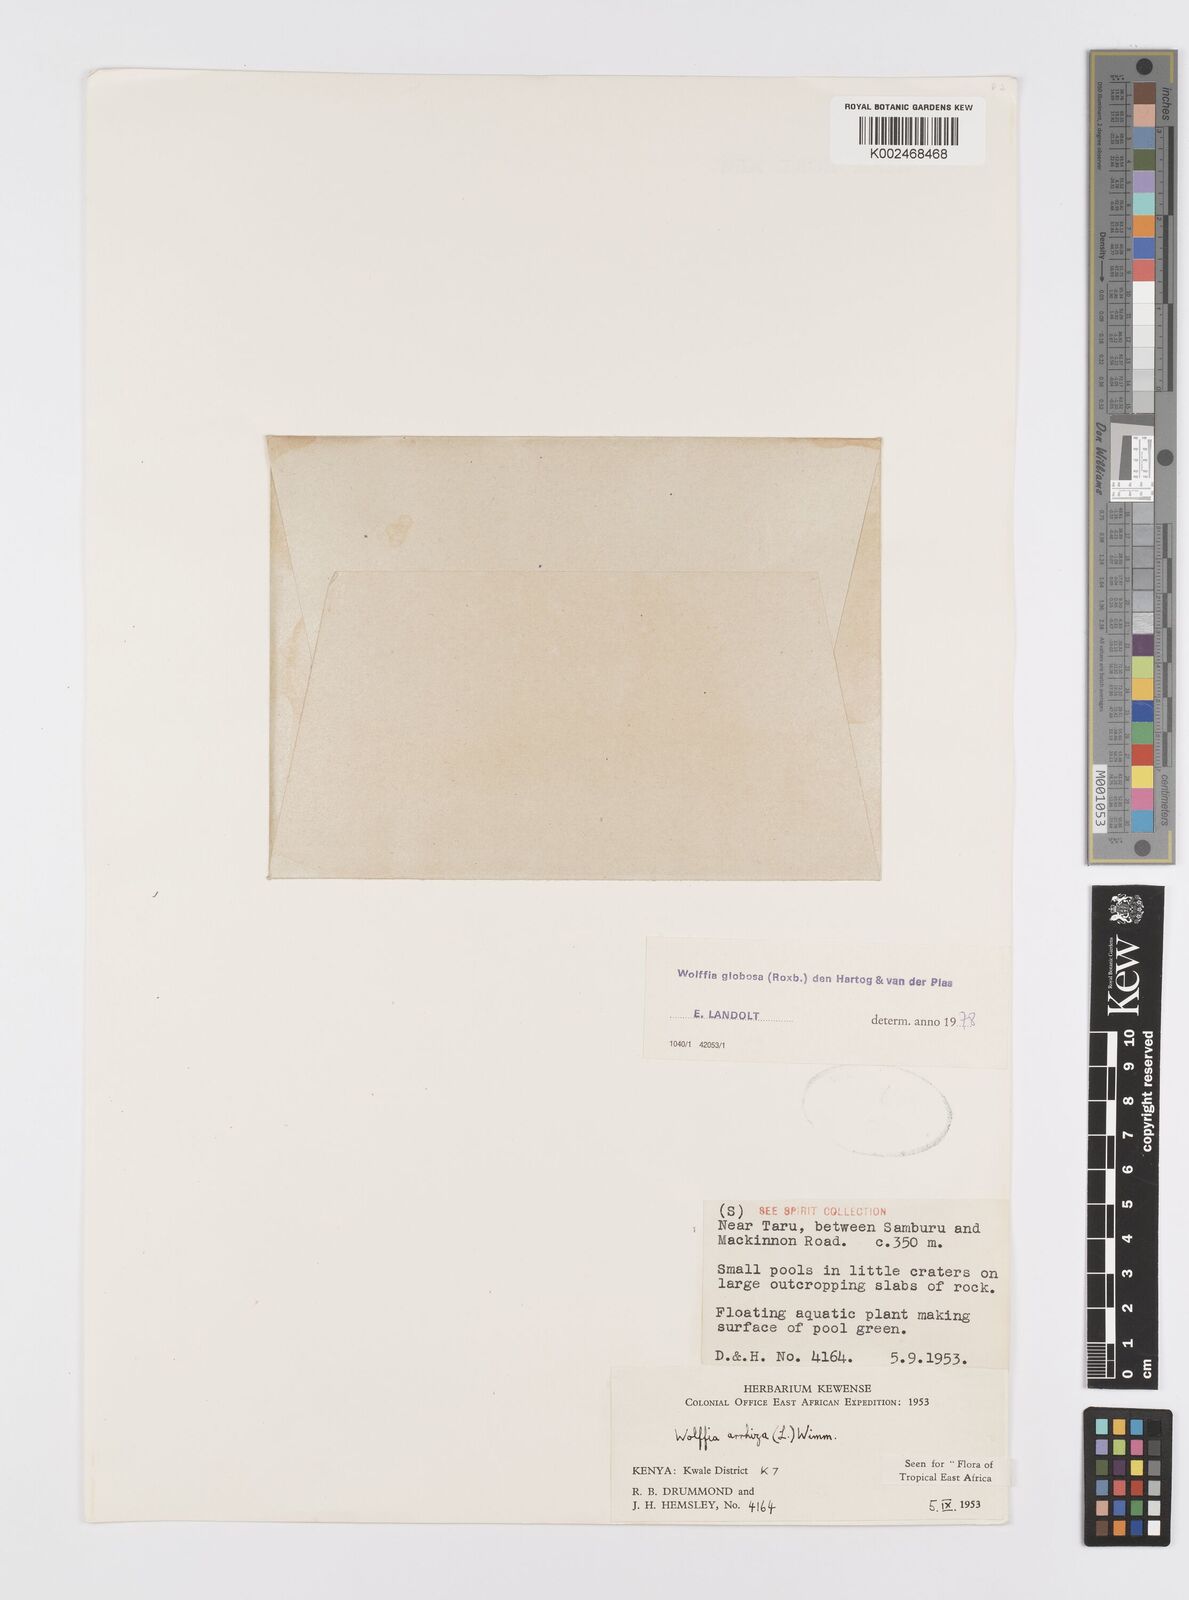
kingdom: Plantae
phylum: Tracheophyta
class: Liliopsida
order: Alismatales
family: Araceae
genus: Wolffia
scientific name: Wolffia globosa
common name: Asian watermeal
